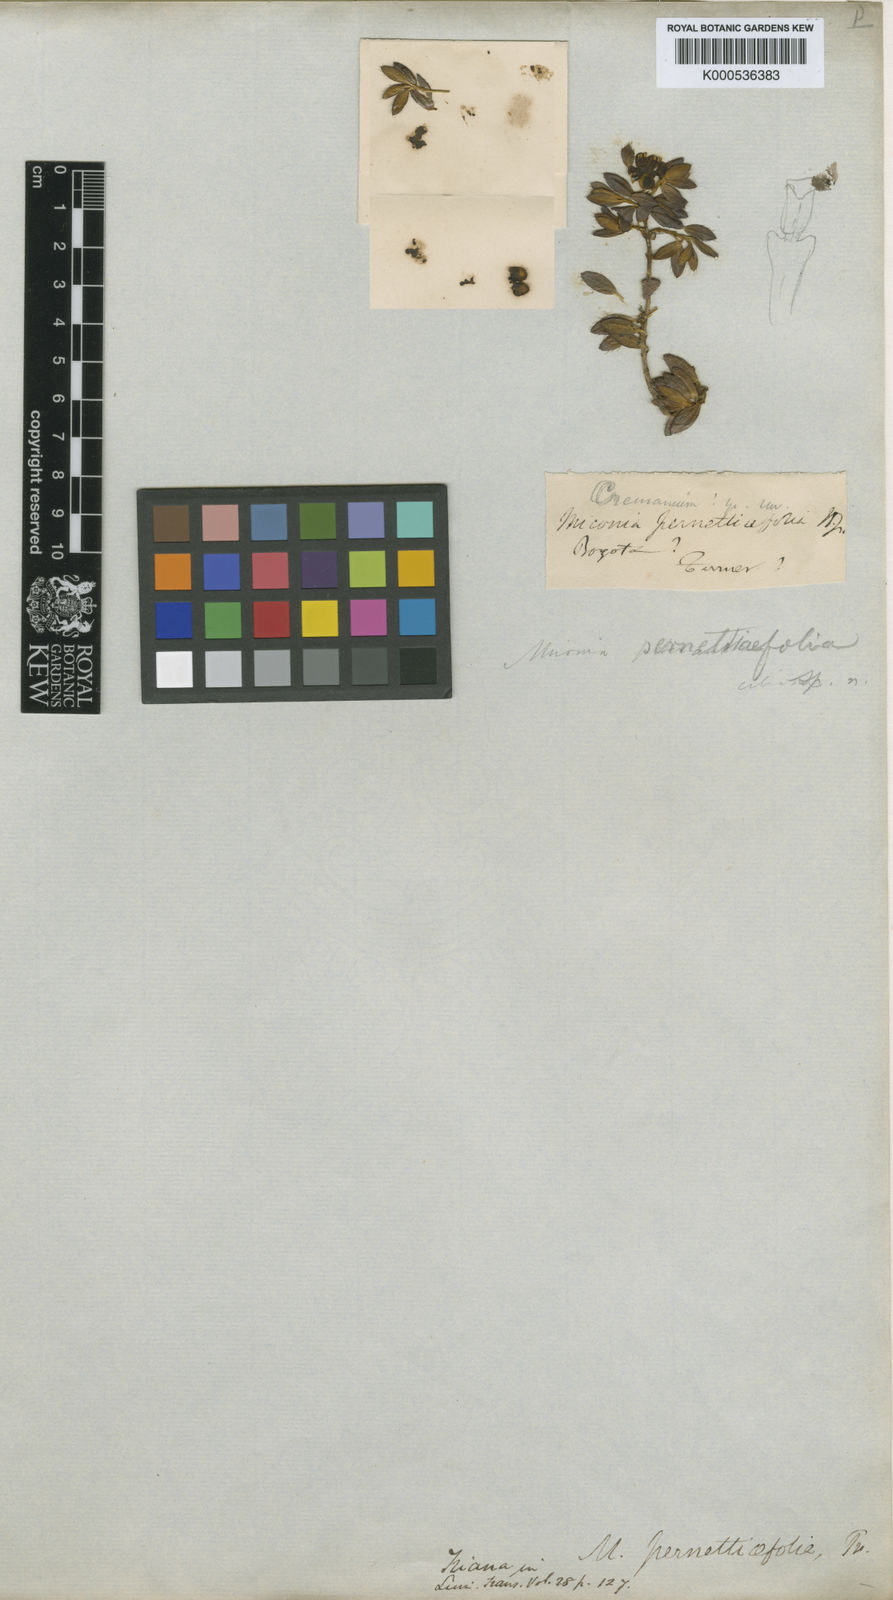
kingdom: Plantae
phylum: Tracheophyta
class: Magnoliopsida
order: Myrtales
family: Melastomataceae
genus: Miconia
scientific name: Miconia pernettifolia
